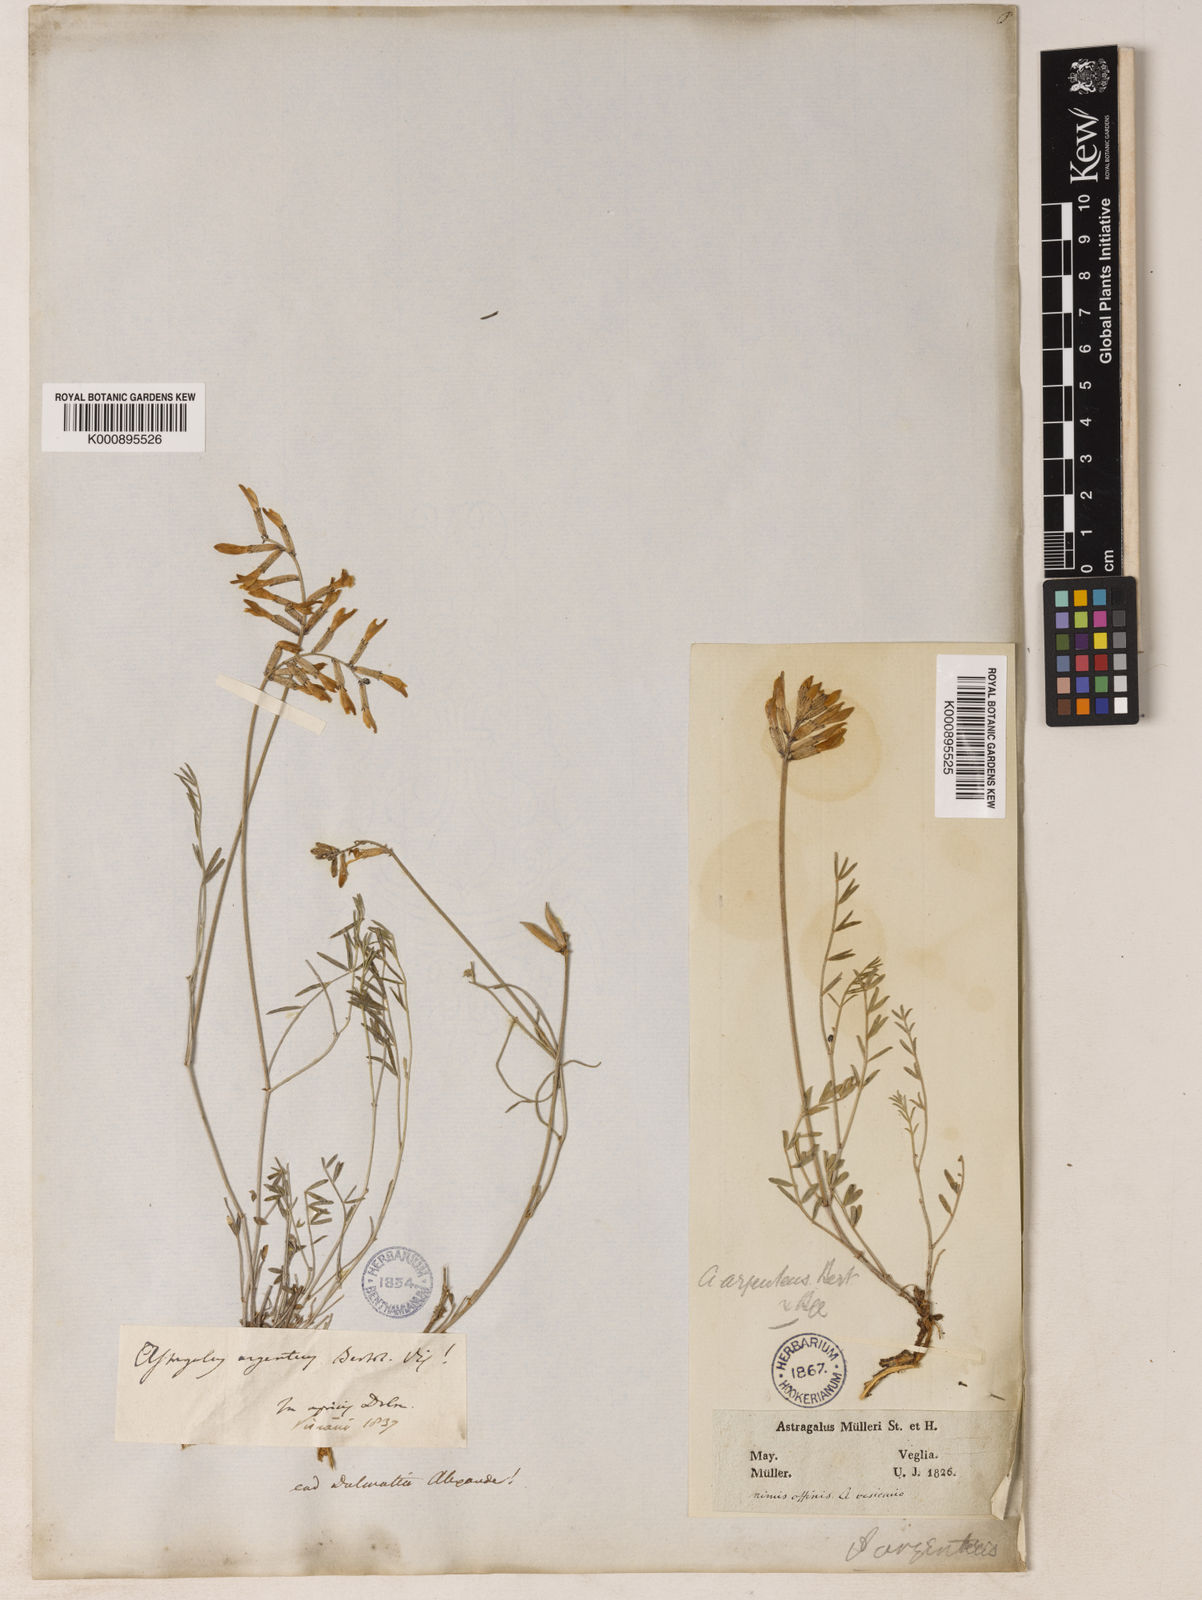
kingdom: Plantae
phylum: Tracheophyta
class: Magnoliopsida
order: Fabales
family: Fabaceae
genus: Astragalus
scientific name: Astragalus
